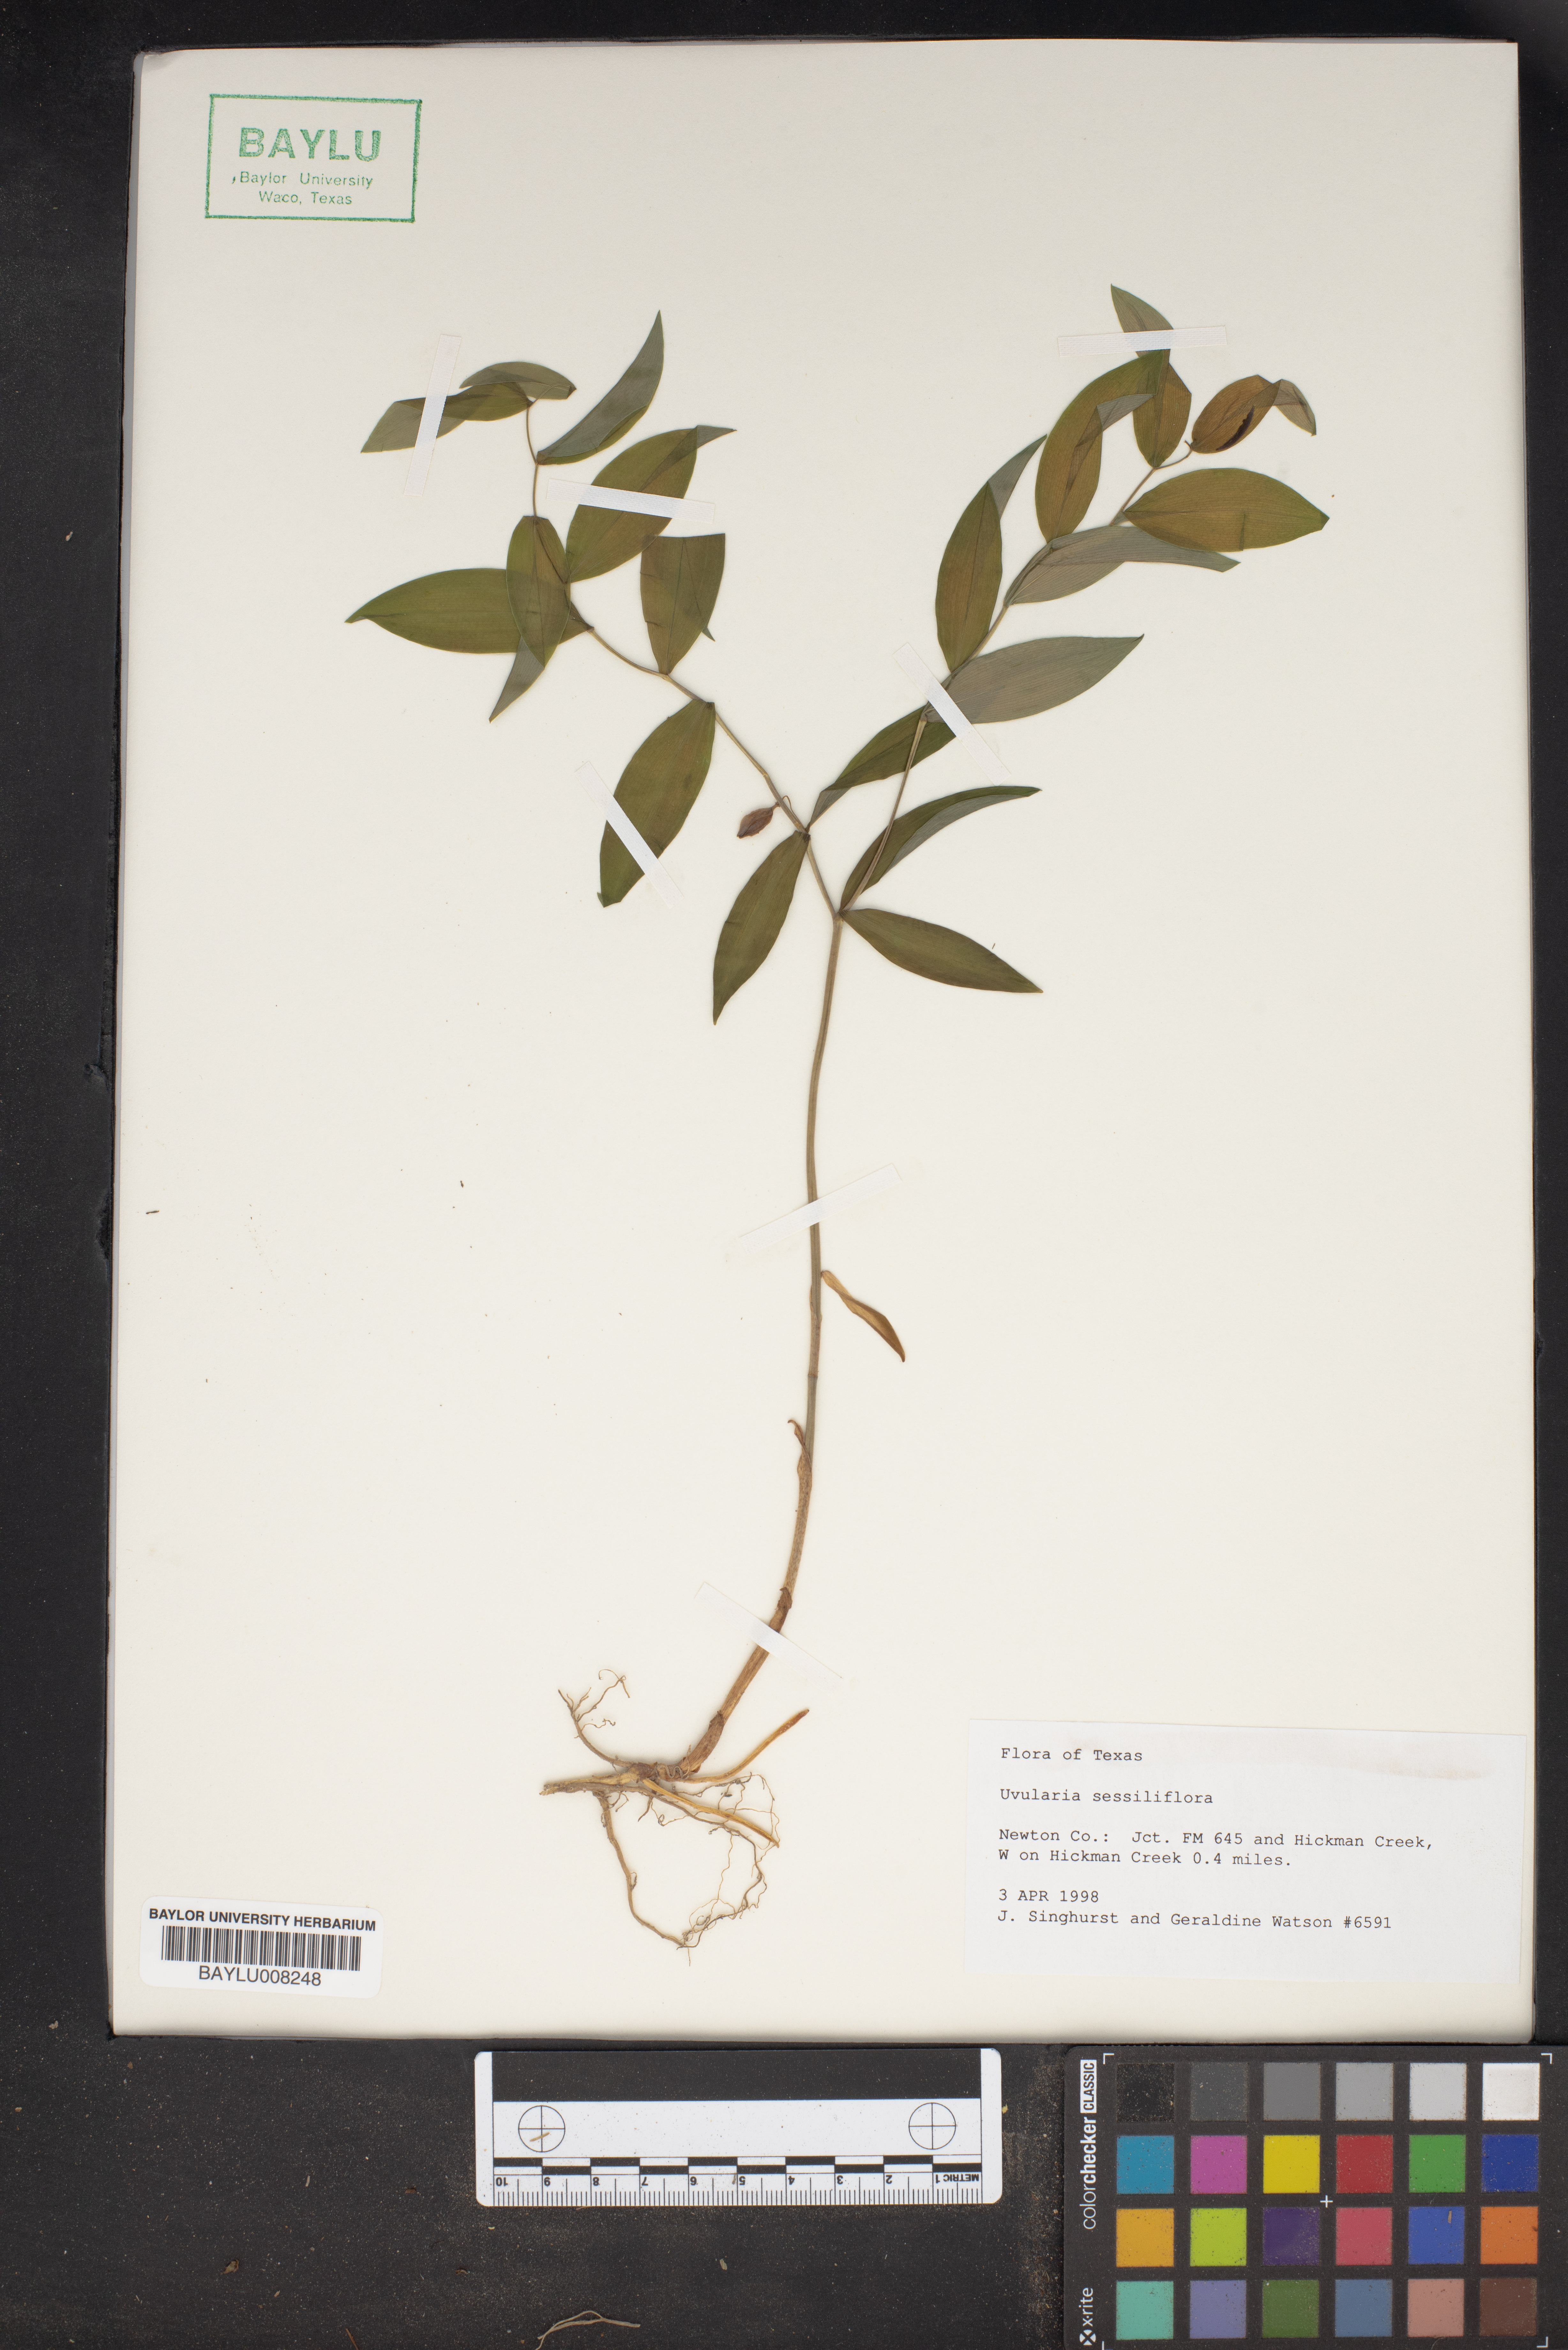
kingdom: Plantae
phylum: Tracheophyta
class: Liliopsida
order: Liliales
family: Colchicaceae
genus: Uvularia
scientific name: Uvularia sessilifolia
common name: Straw-lily
